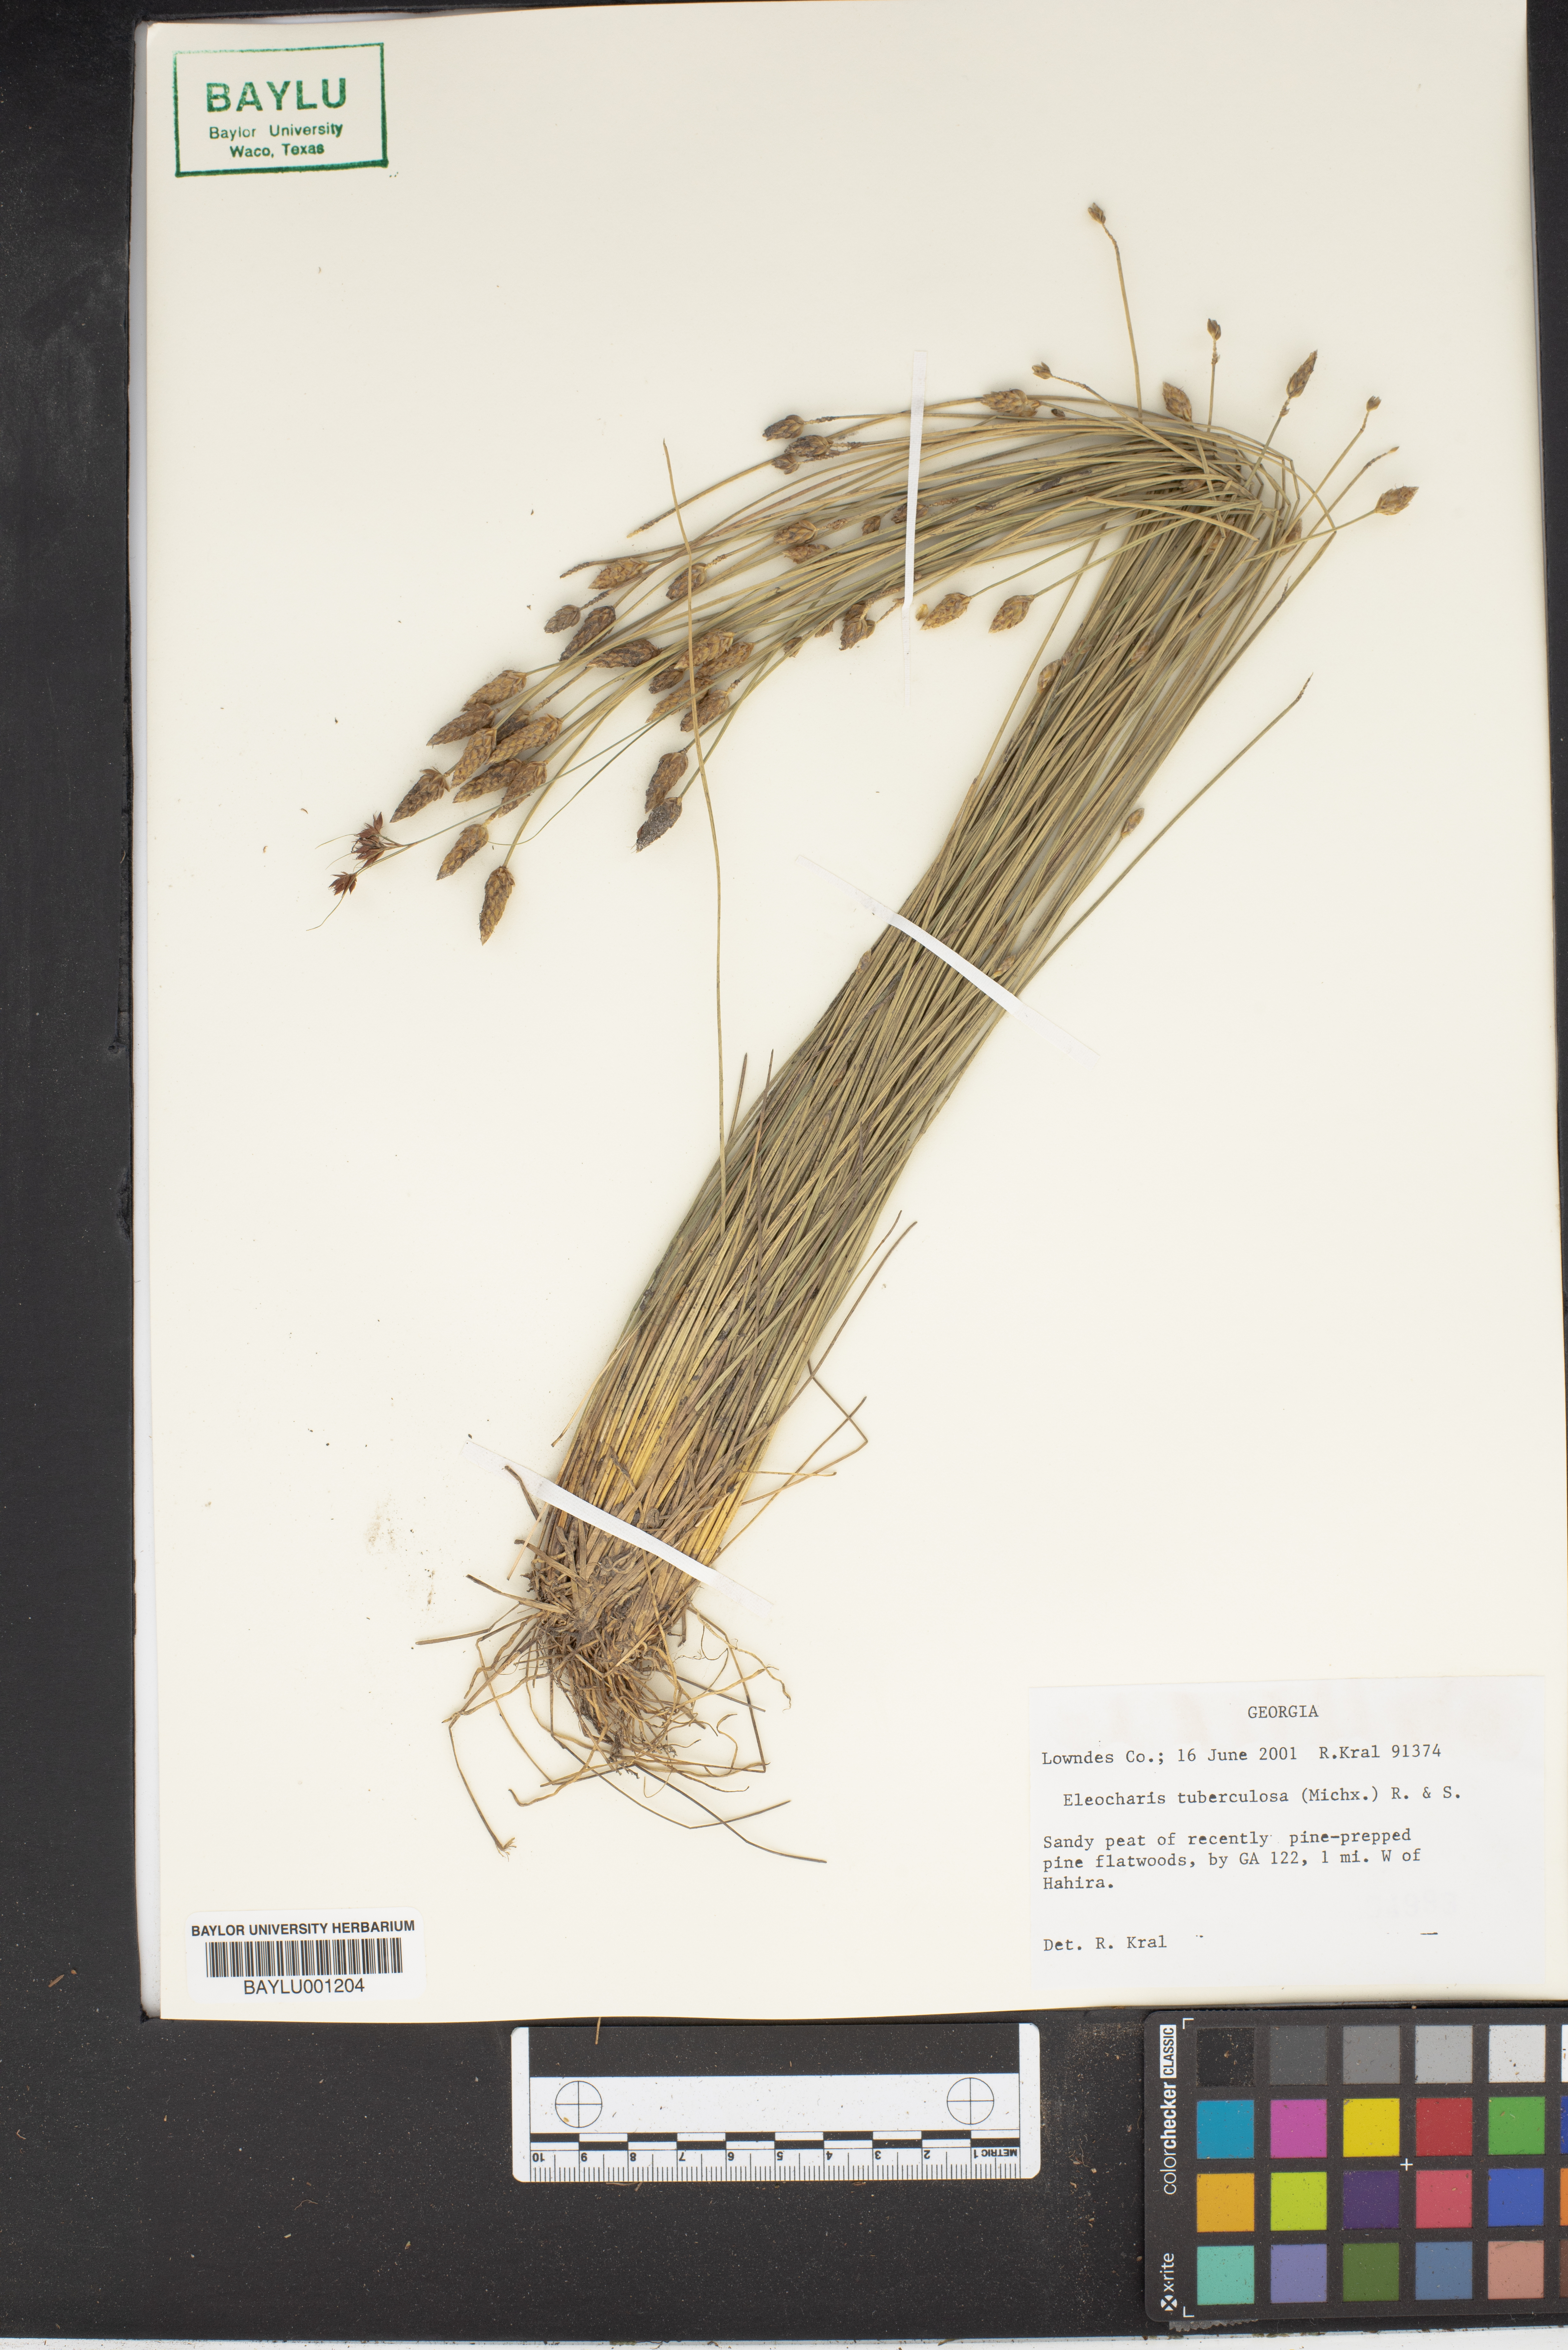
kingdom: Plantae
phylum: Tracheophyta
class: Liliopsida
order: Poales
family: Cyperaceae
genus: Eleocharis
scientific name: Eleocharis tuberculosa
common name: Cone-cup spikerush
